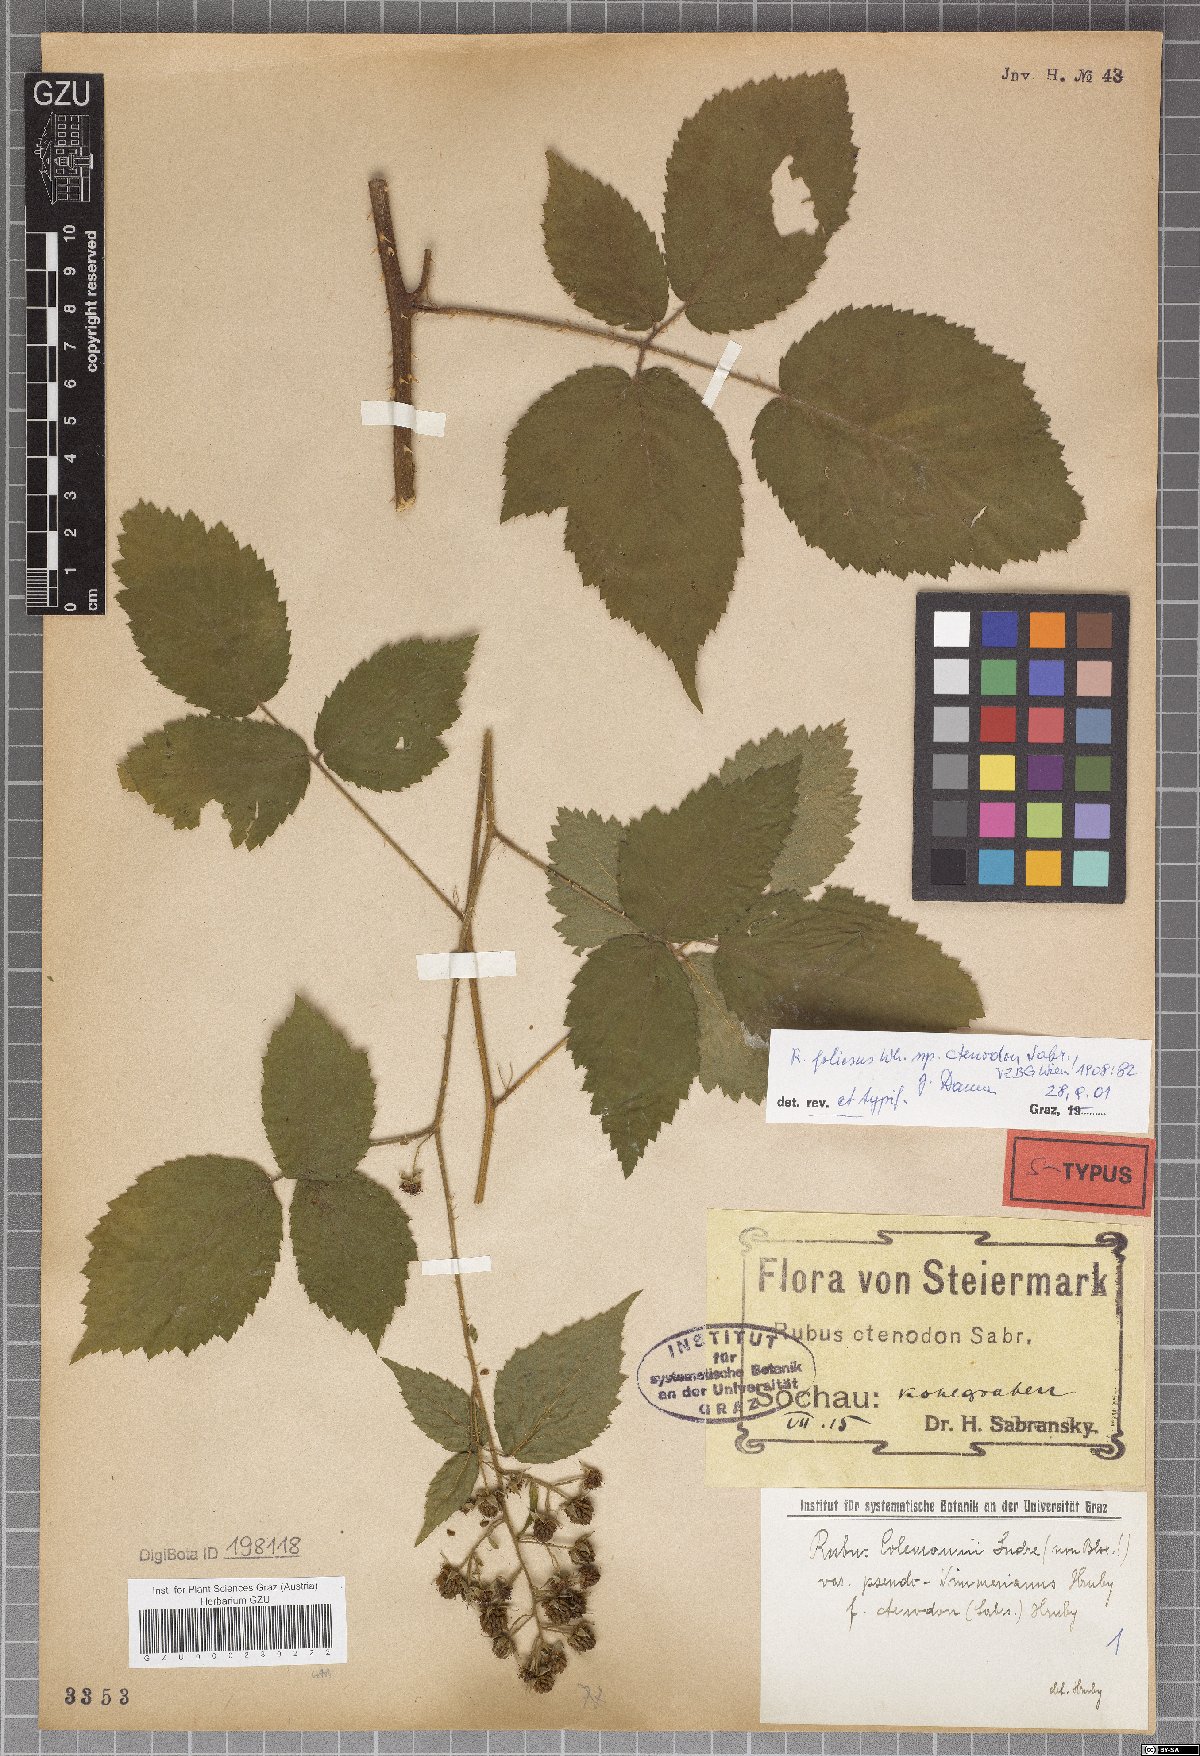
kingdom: Plantae
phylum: Tracheophyta
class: Magnoliopsida
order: Rosales
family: Rosaceae
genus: Rubus
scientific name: Rubus foliosus
